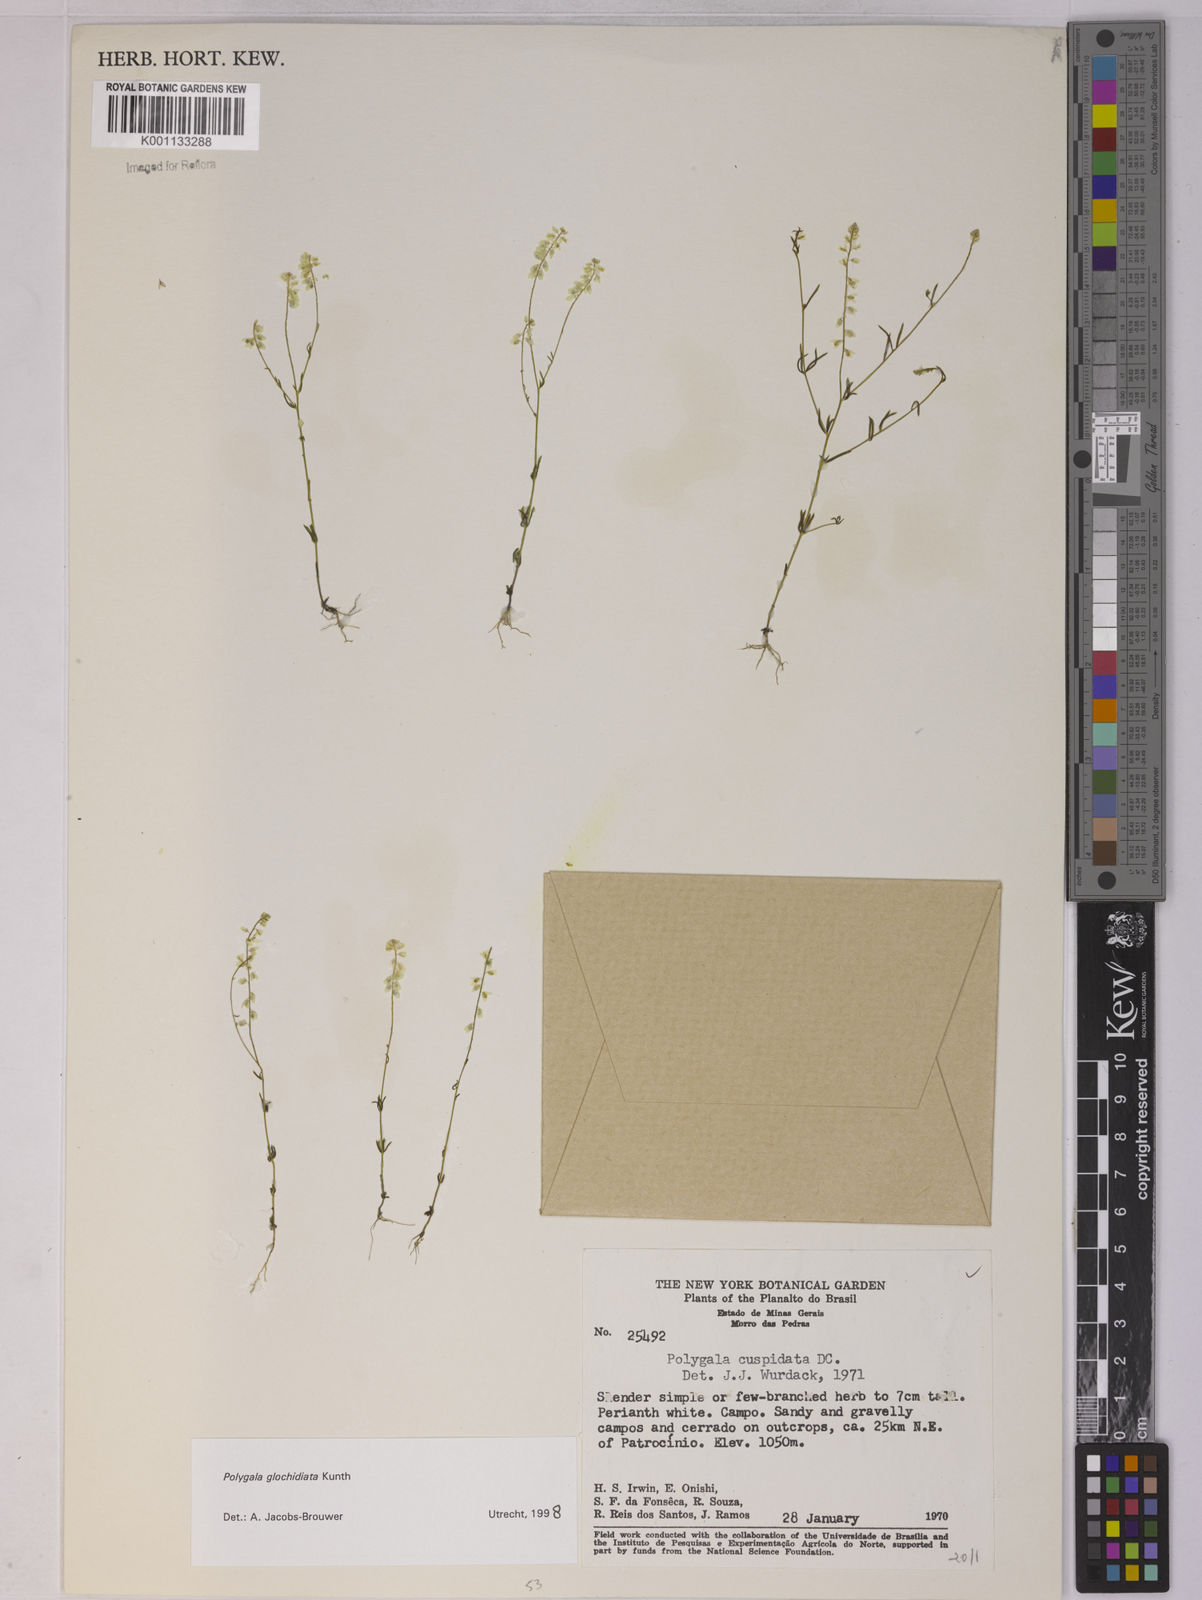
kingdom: Plantae
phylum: Tracheophyta
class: Magnoliopsida
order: Fabales
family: Polygalaceae
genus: Polygala
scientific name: Polygala glochidiata
